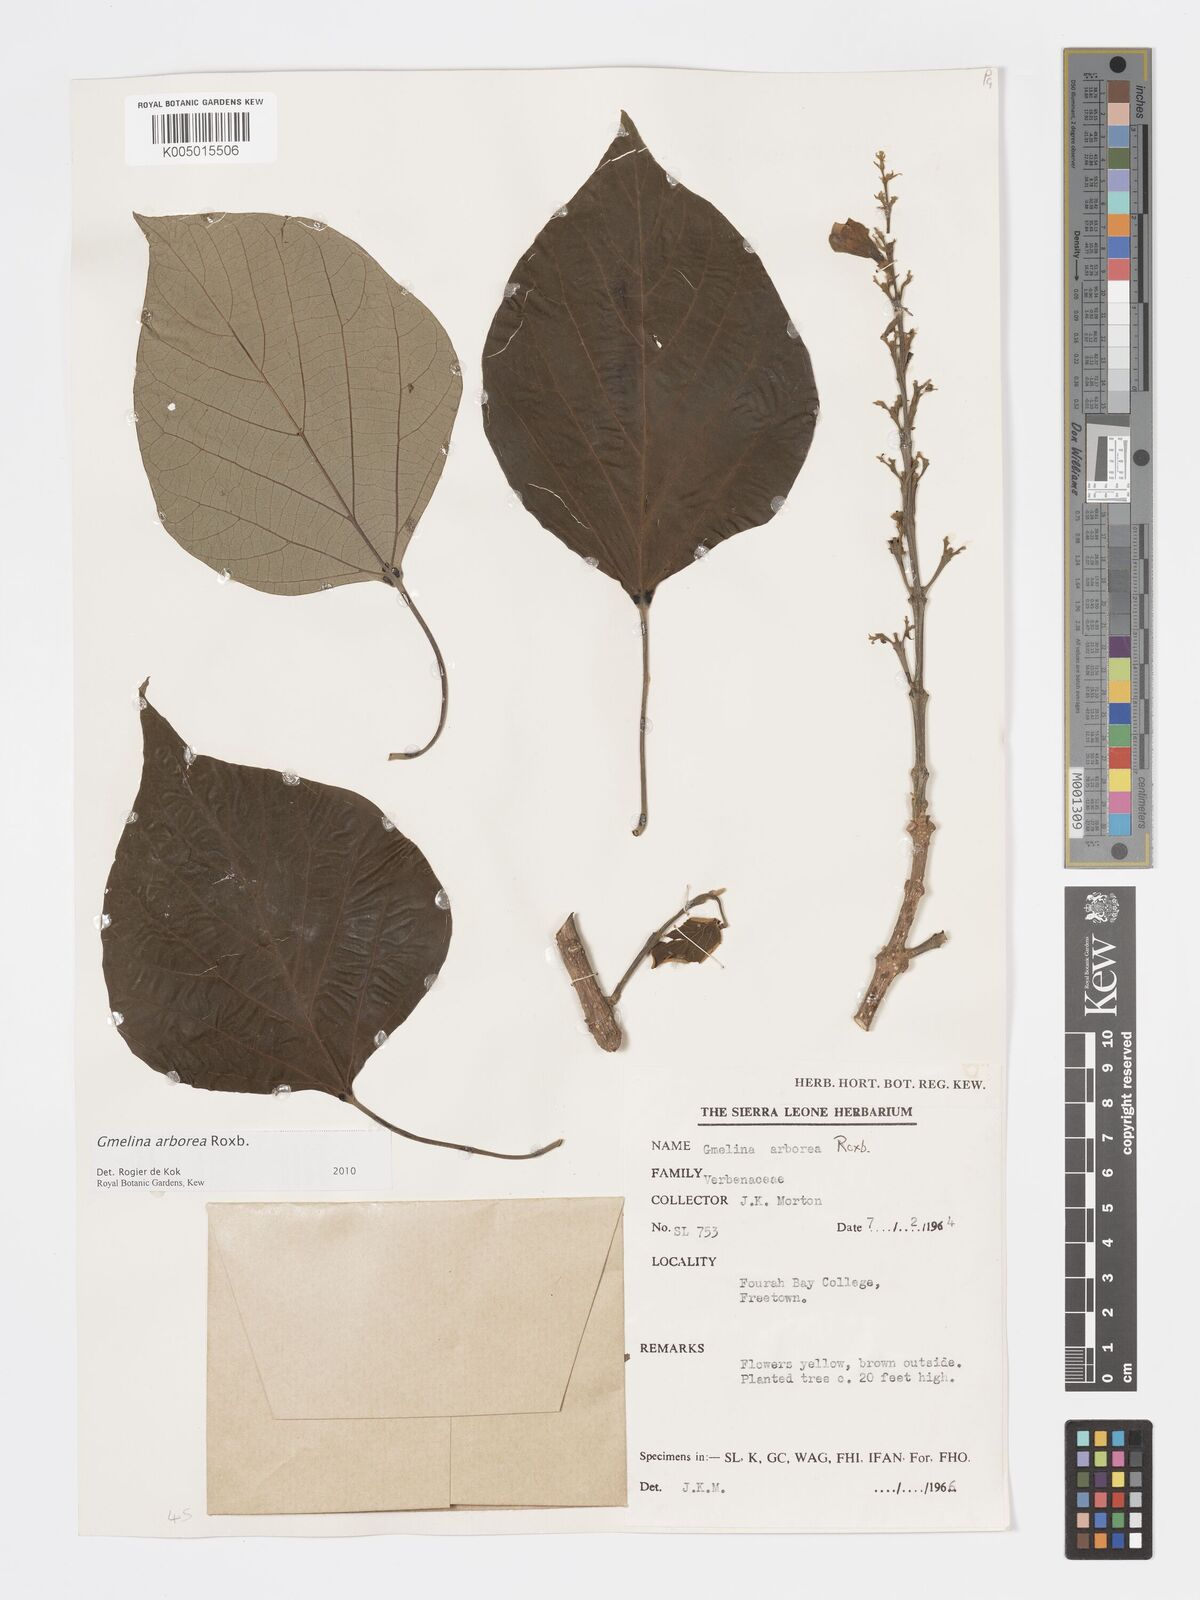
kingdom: Plantae
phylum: Tracheophyta
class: Magnoliopsida
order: Lamiales
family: Lamiaceae
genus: Gmelina
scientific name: Gmelina arborea
